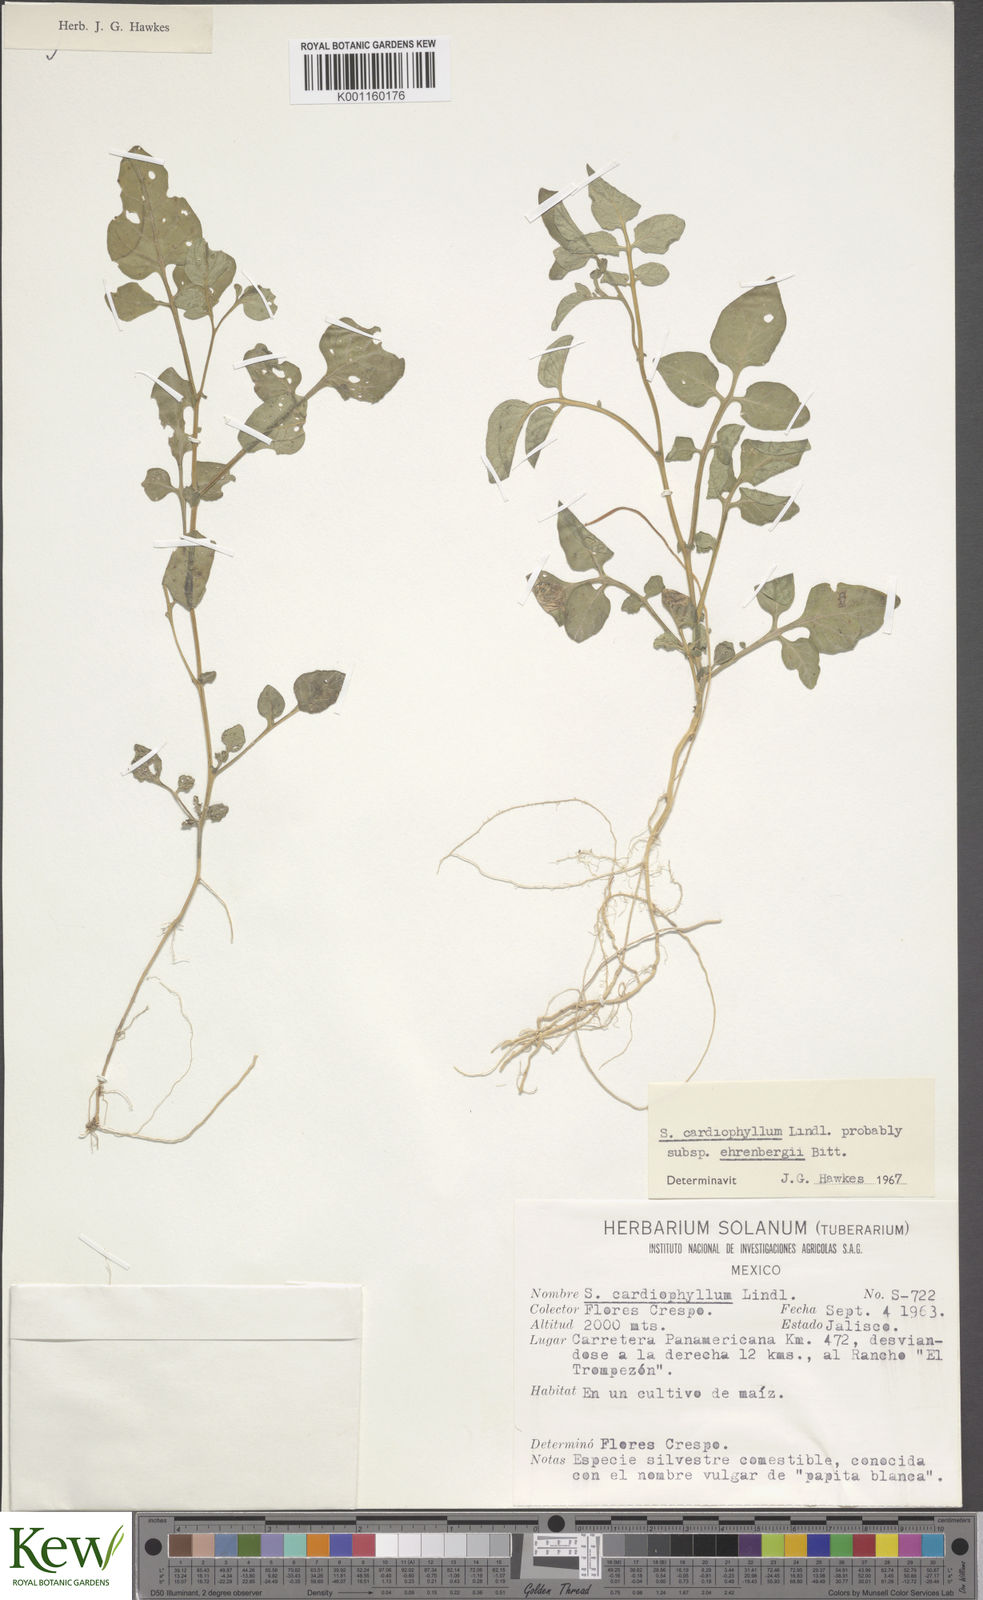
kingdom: Plantae
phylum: Tracheophyta
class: Magnoliopsida
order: Solanales
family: Solanaceae
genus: Solanum
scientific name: Solanum cardiophyllum
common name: Heartleaf horsenettle
